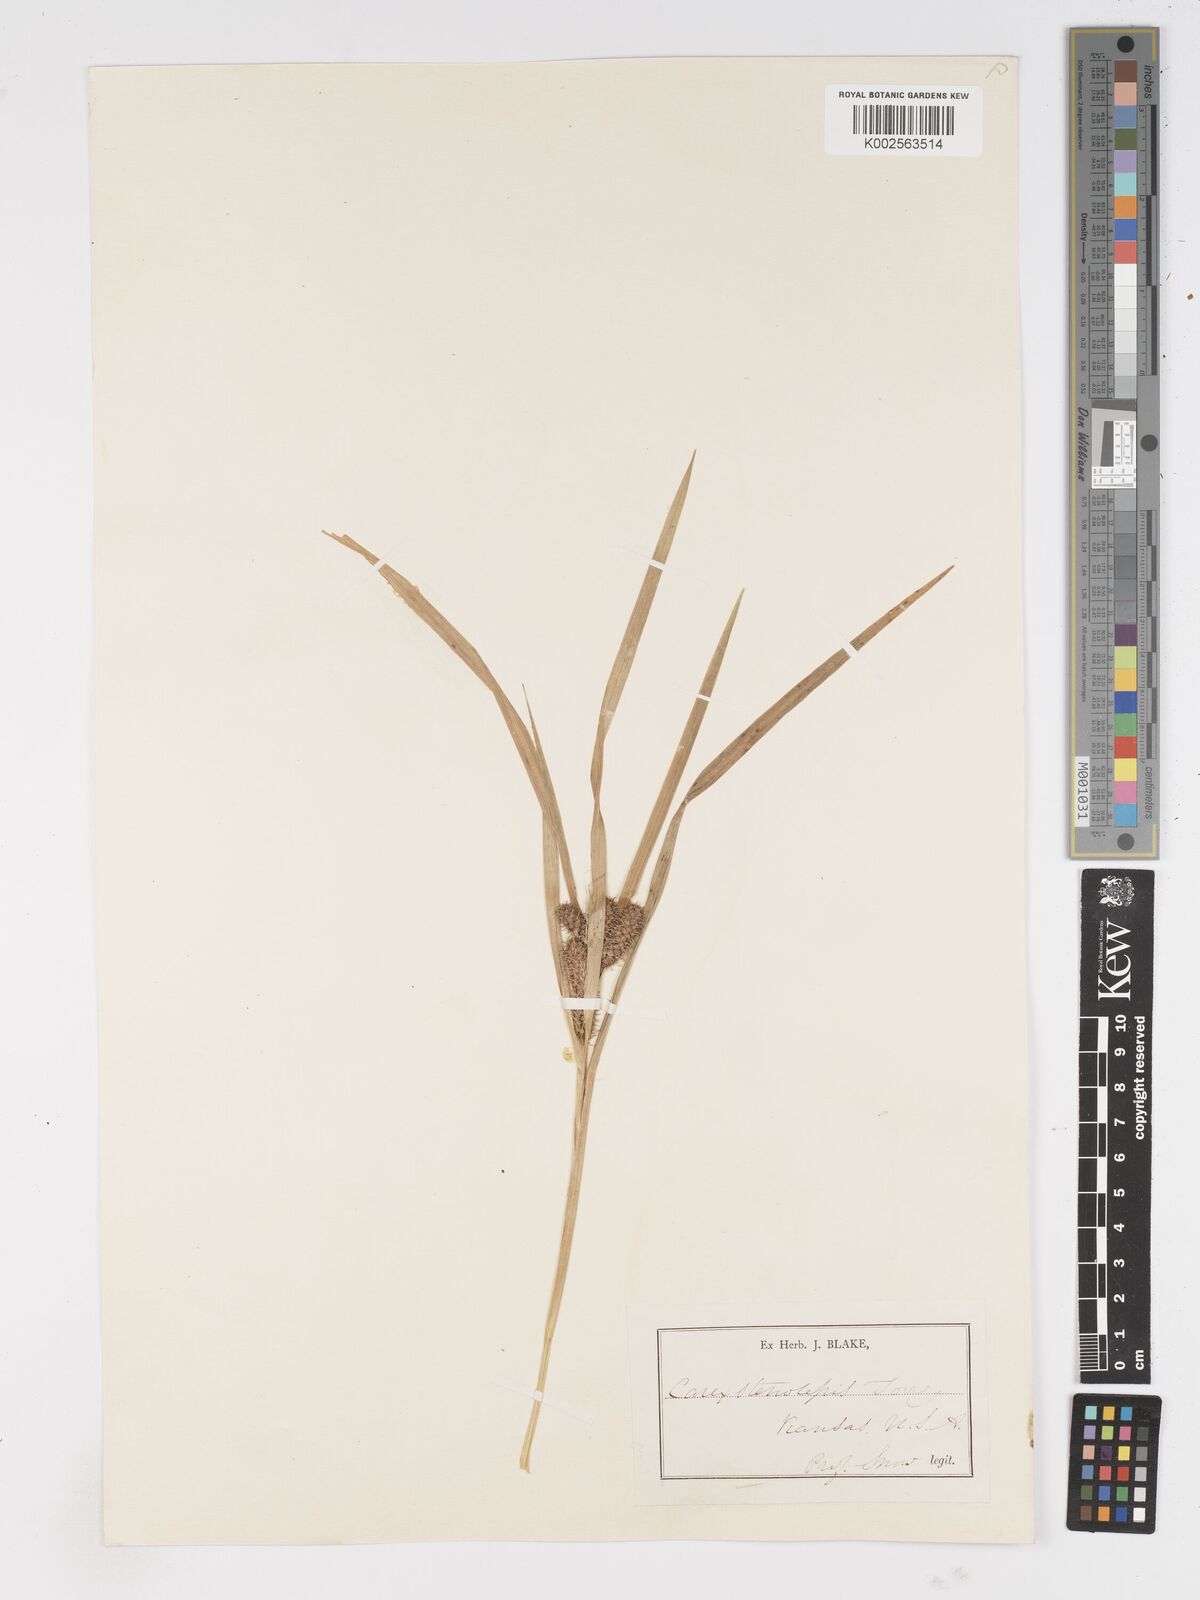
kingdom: Plantae
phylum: Tracheophyta
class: Liliopsida
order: Poales
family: Cyperaceae
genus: Carex
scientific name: Carex frankii
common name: Frank's sedge
